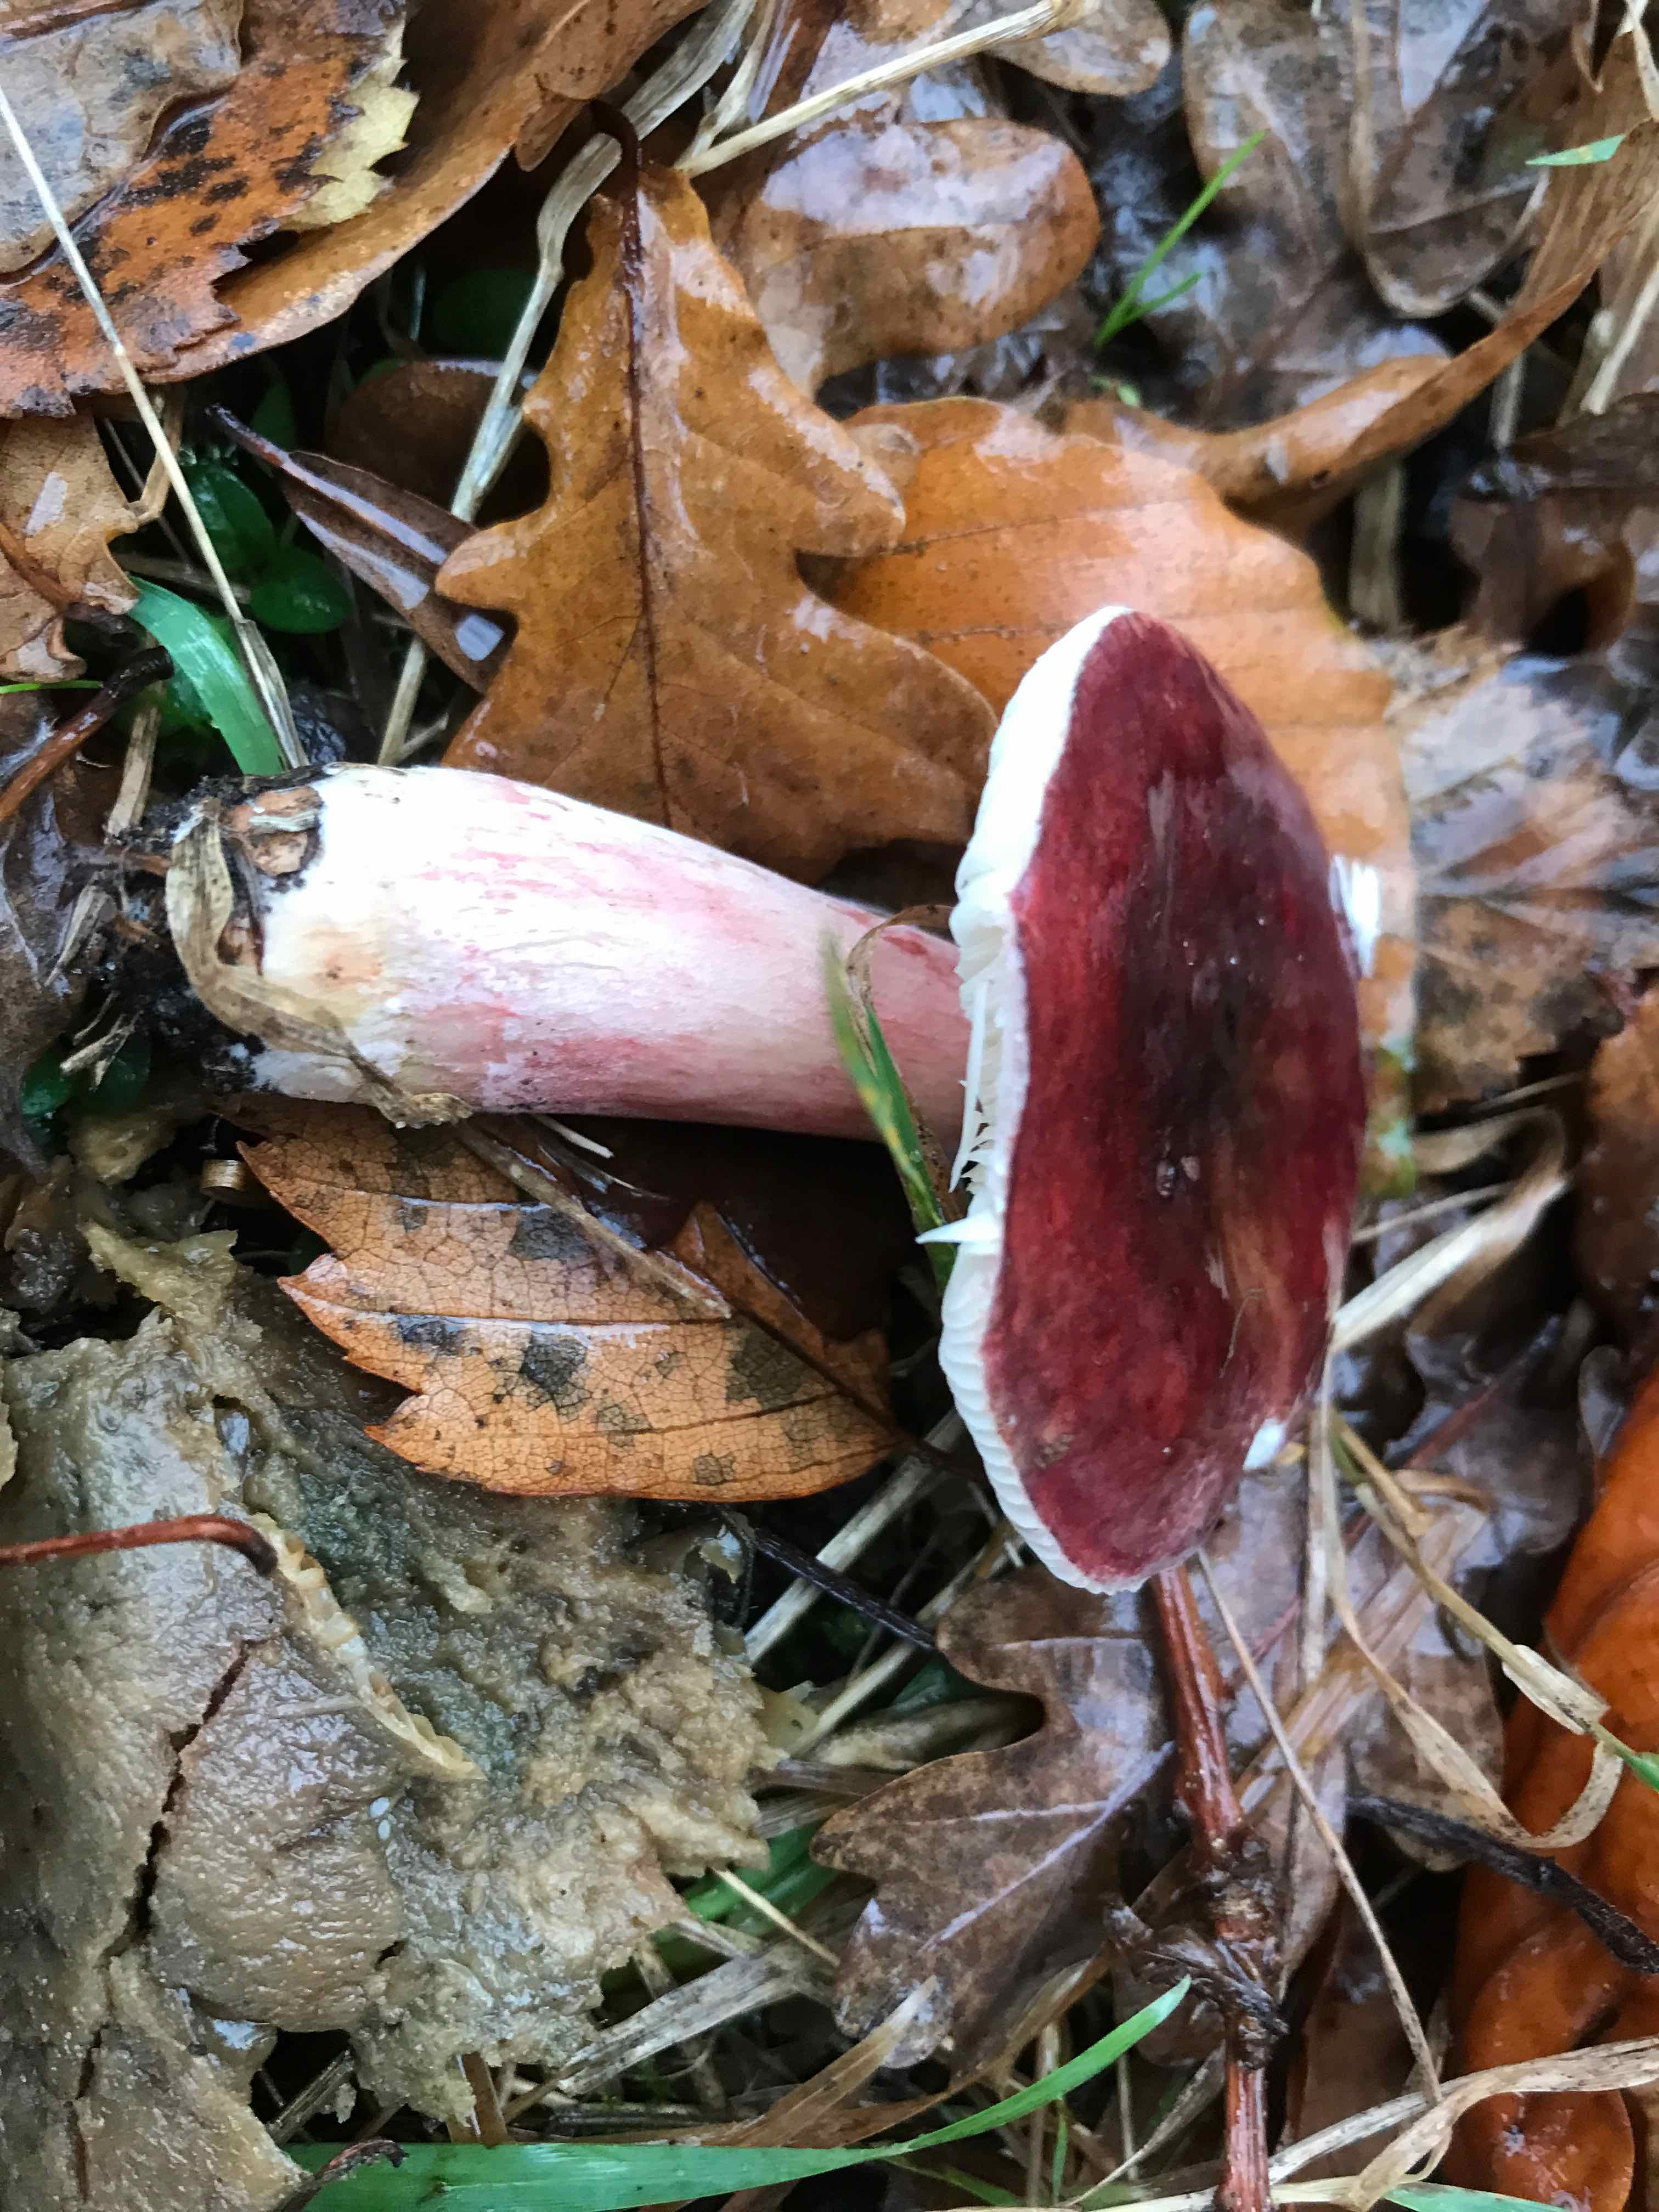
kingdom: Fungi
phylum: Basidiomycota
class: Agaricomycetes
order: Russulales
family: Russulaceae
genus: Russula
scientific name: Russula queletii
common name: Quélets skørhat
